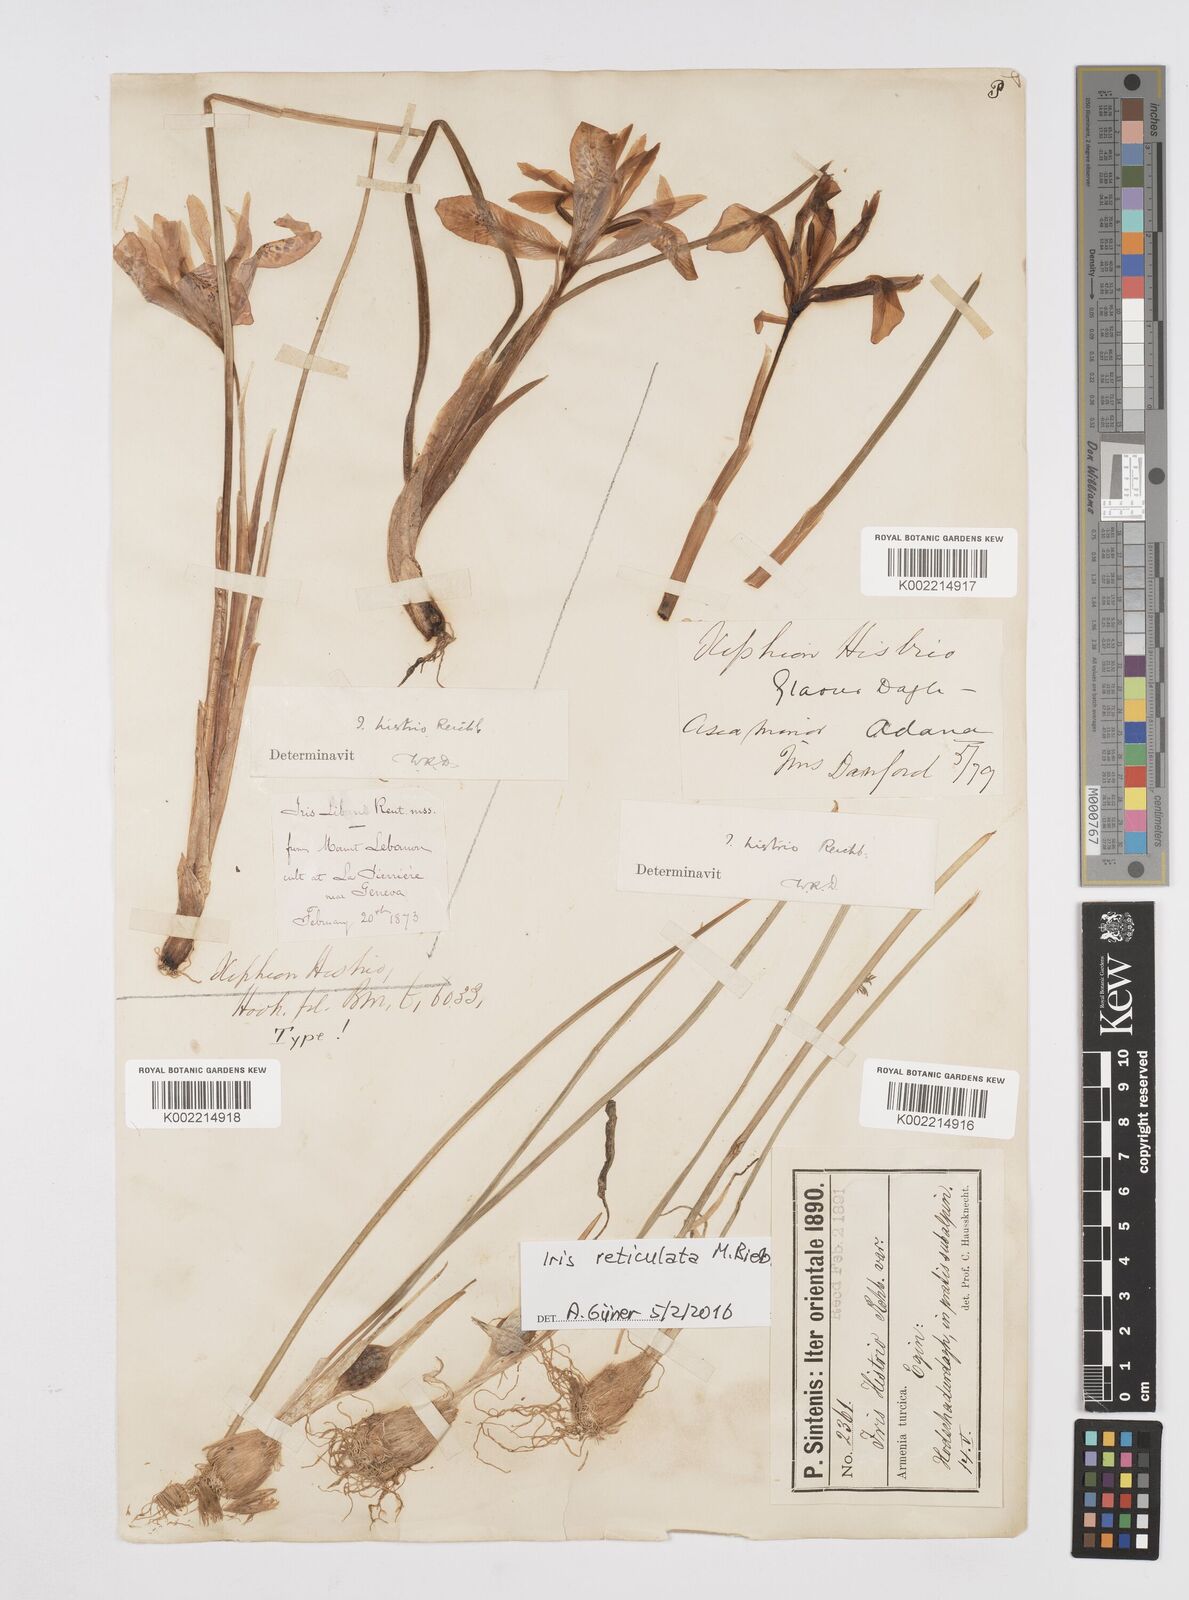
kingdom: Plantae
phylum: Tracheophyta
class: Liliopsida
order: Asparagales
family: Iridaceae
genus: Iris
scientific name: Iris histrio
